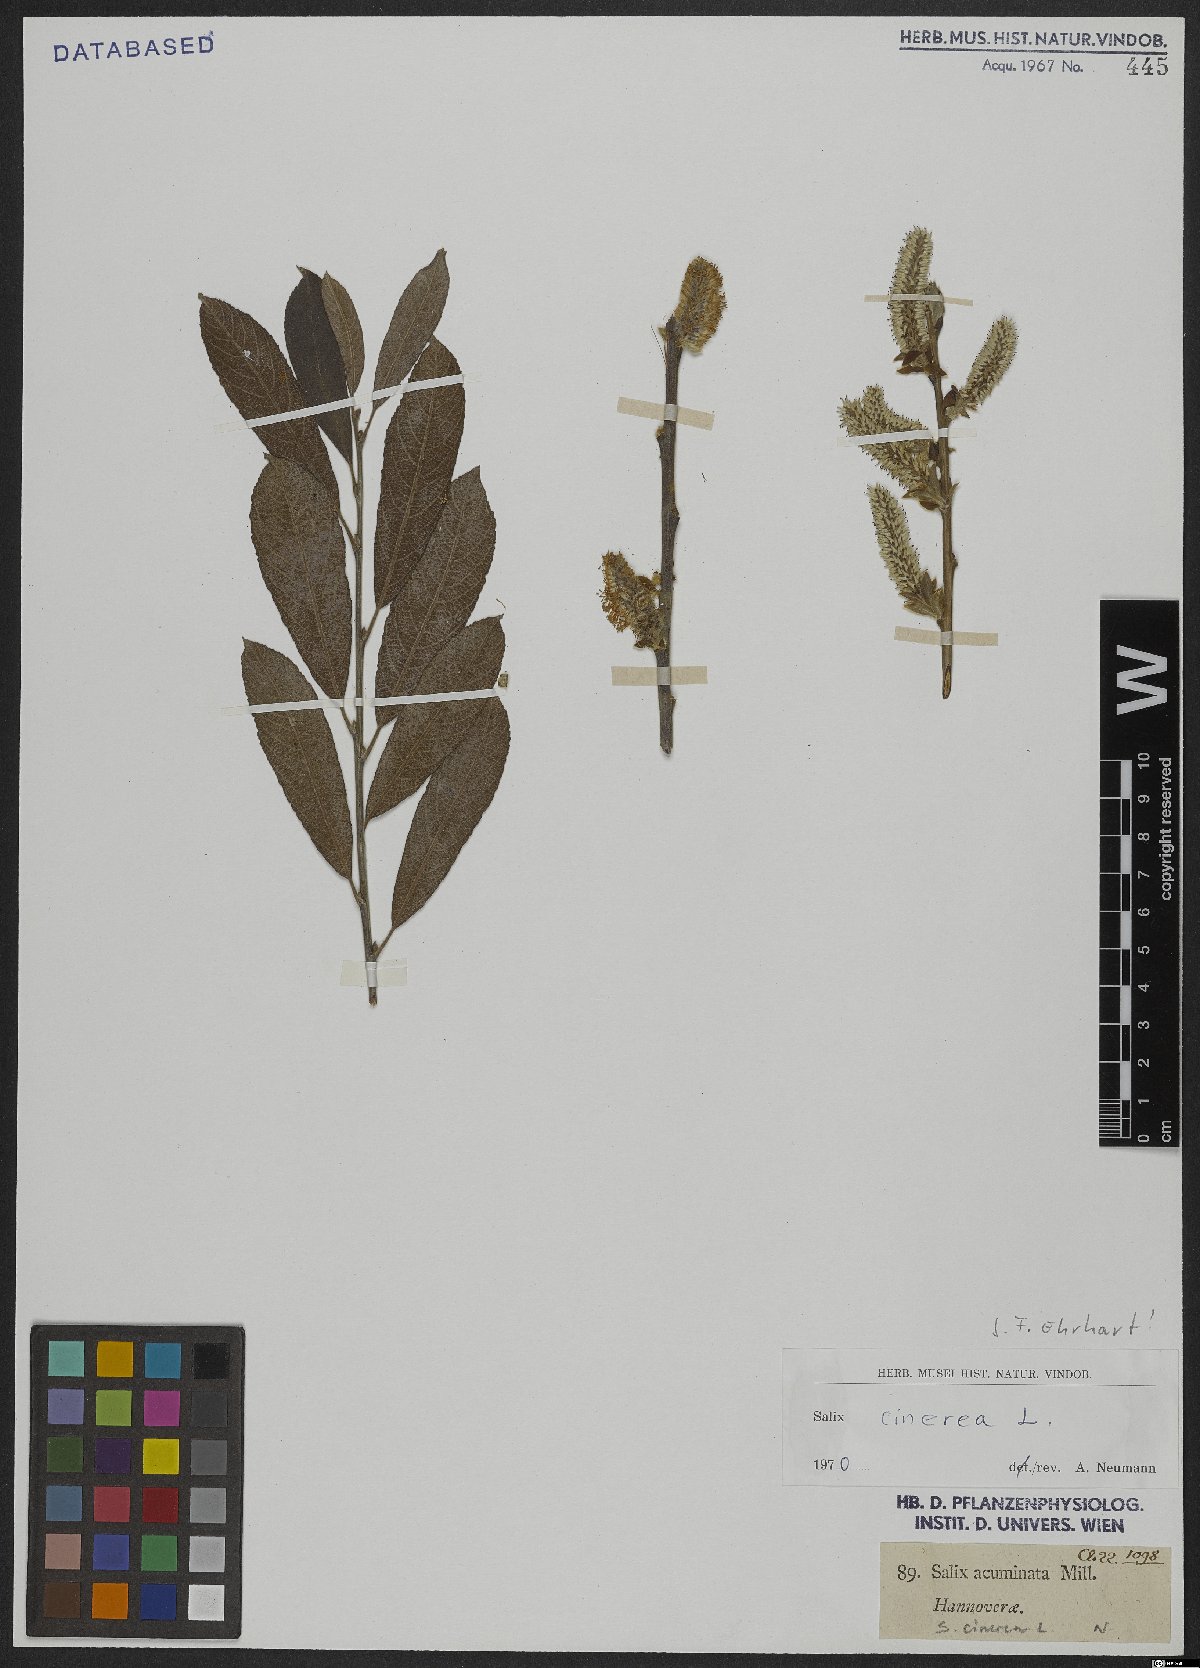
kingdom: Plantae
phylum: Tracheophyta
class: Magnoliopsida
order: Malpighiales
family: Salicaceae
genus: Salix
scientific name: Salix cinerea
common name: Common sallow
